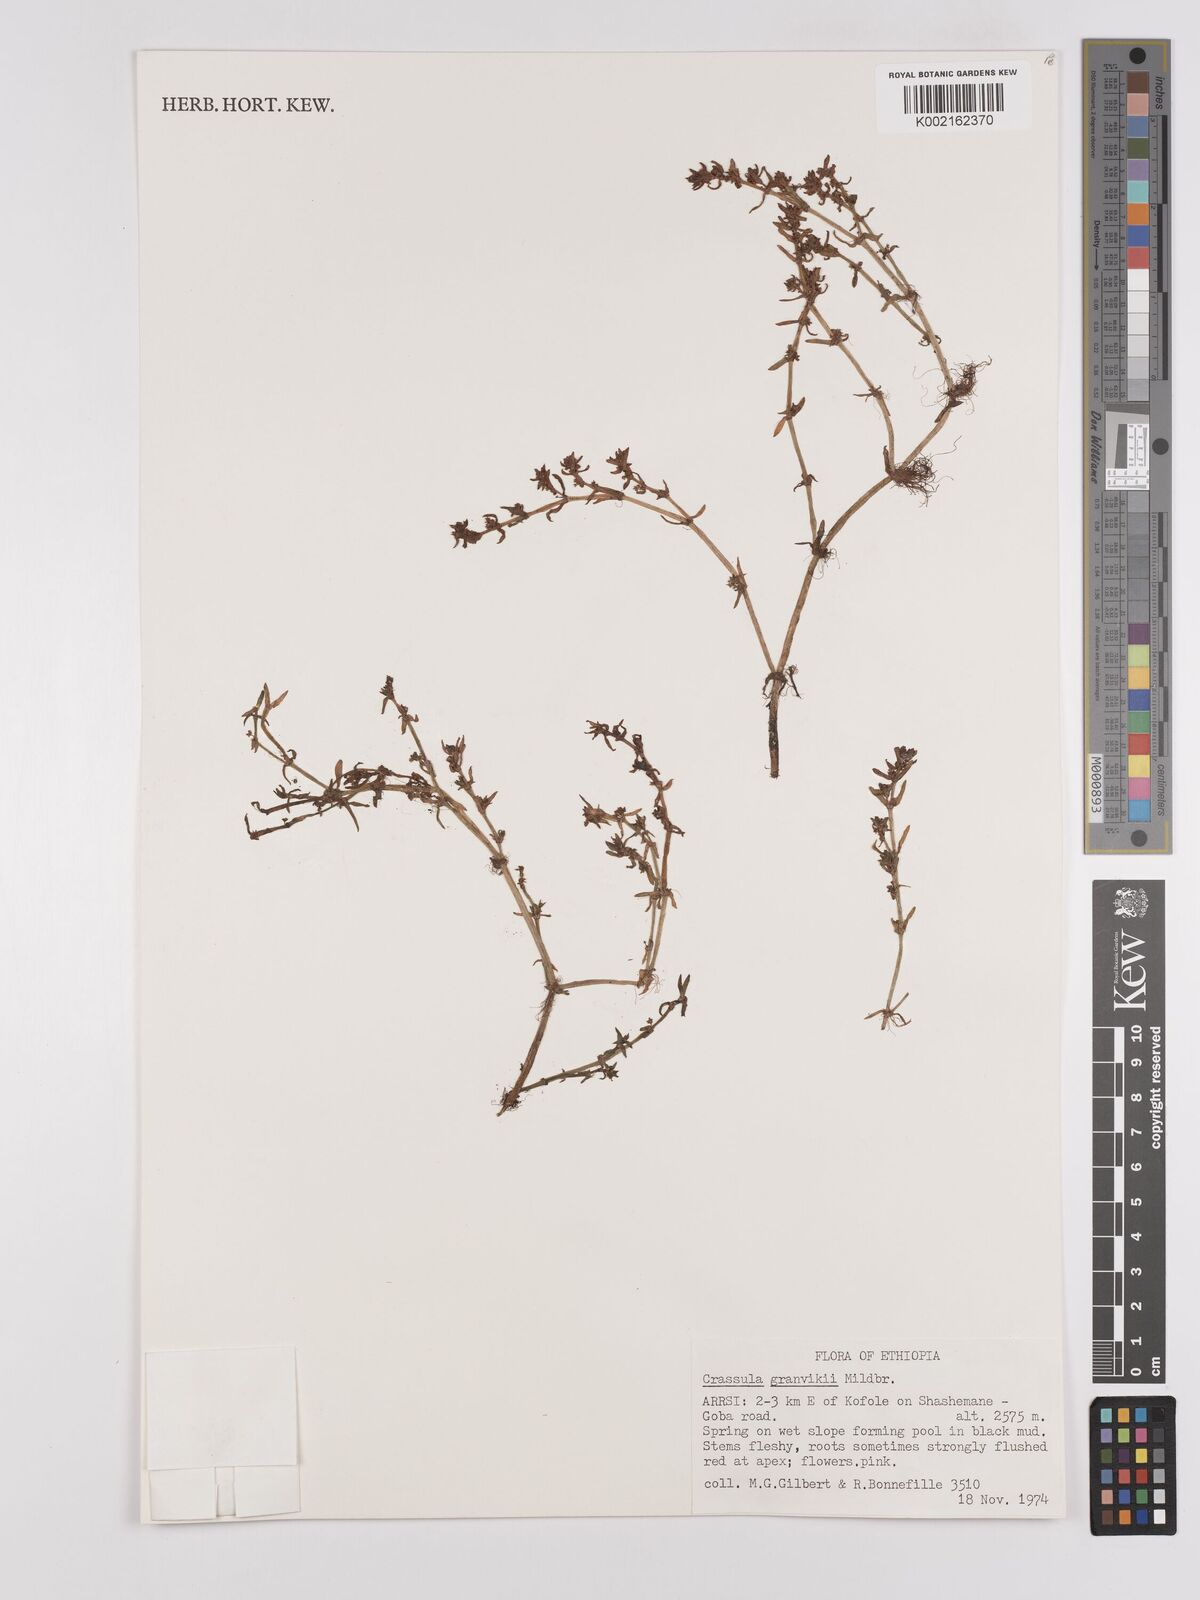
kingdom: Plantae
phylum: Tracheophyta
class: Magnoliopsida
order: Saxifragales
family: Crassulaceae
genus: Crassula
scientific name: Crassula granvikii
